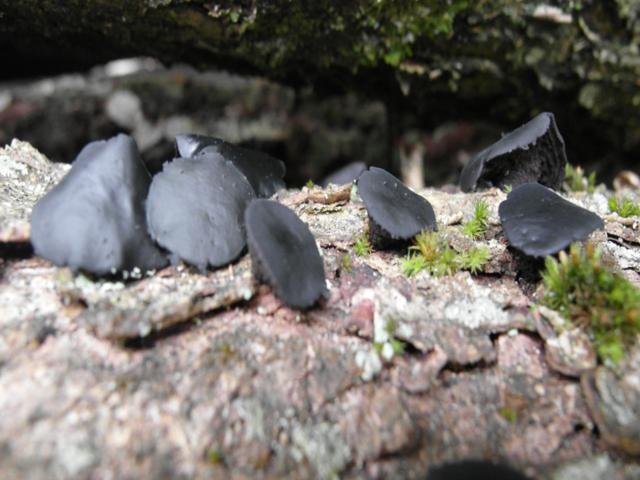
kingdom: Fungi
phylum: Ascomycota
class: Leotiomycetes
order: Phacidiales
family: Phacidiaceae
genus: Bulgaria
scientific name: Bulgaria inquinans
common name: afsmittende topsvamp
